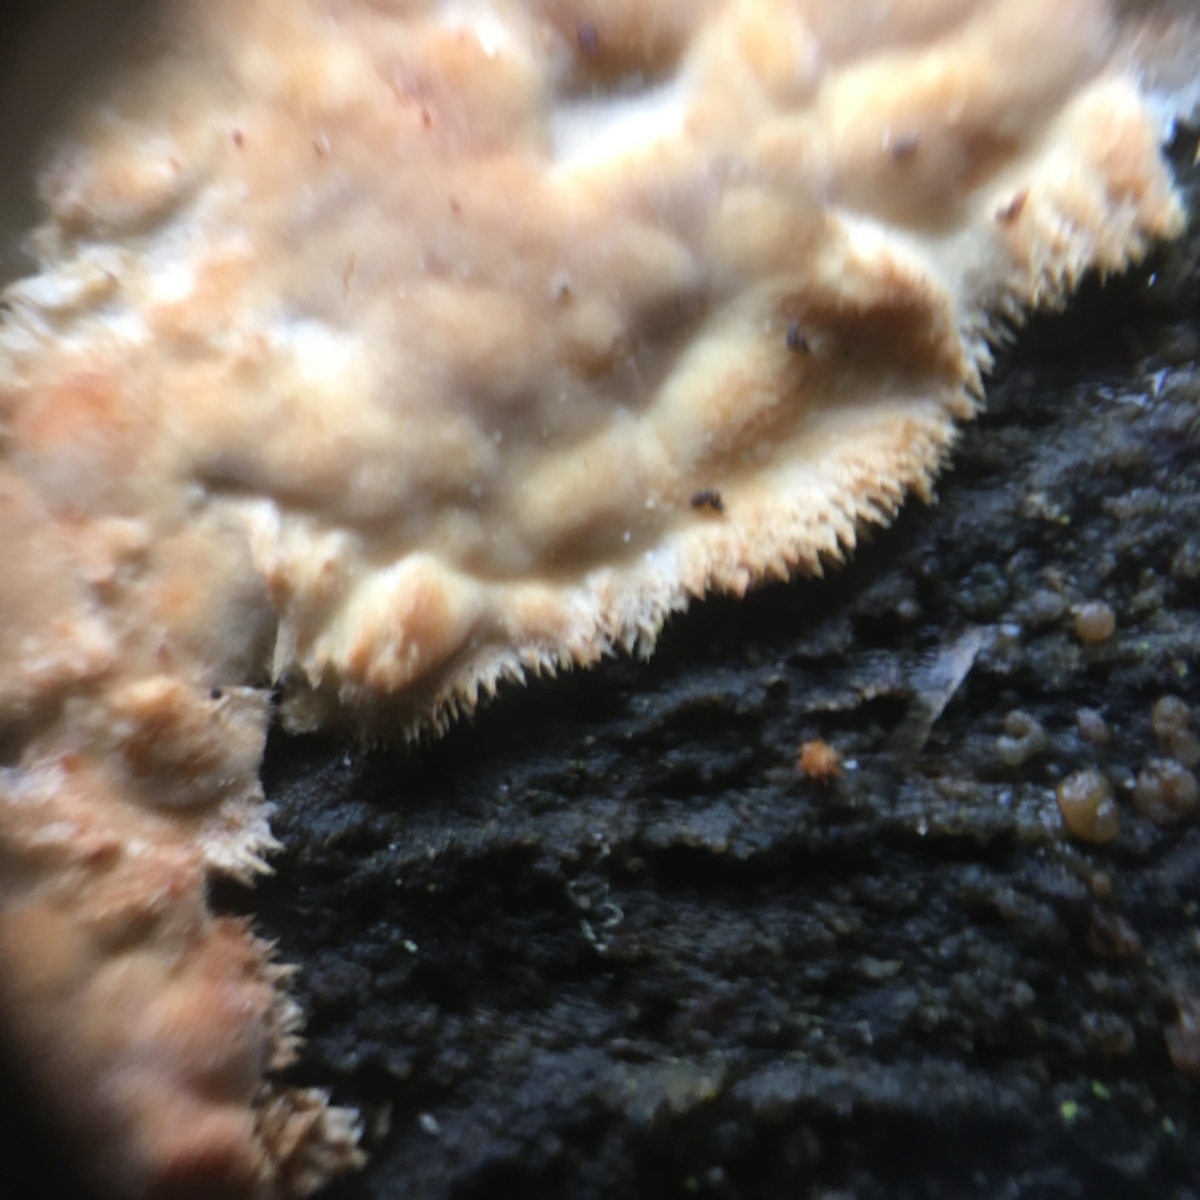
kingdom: Fungi
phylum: Basidiomycota
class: Agaricomycetes
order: Polyporales
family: Dacryobolaceae
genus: Dacryobolus
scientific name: Dacryobolus karstenii
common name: glat vulkanskorpe
